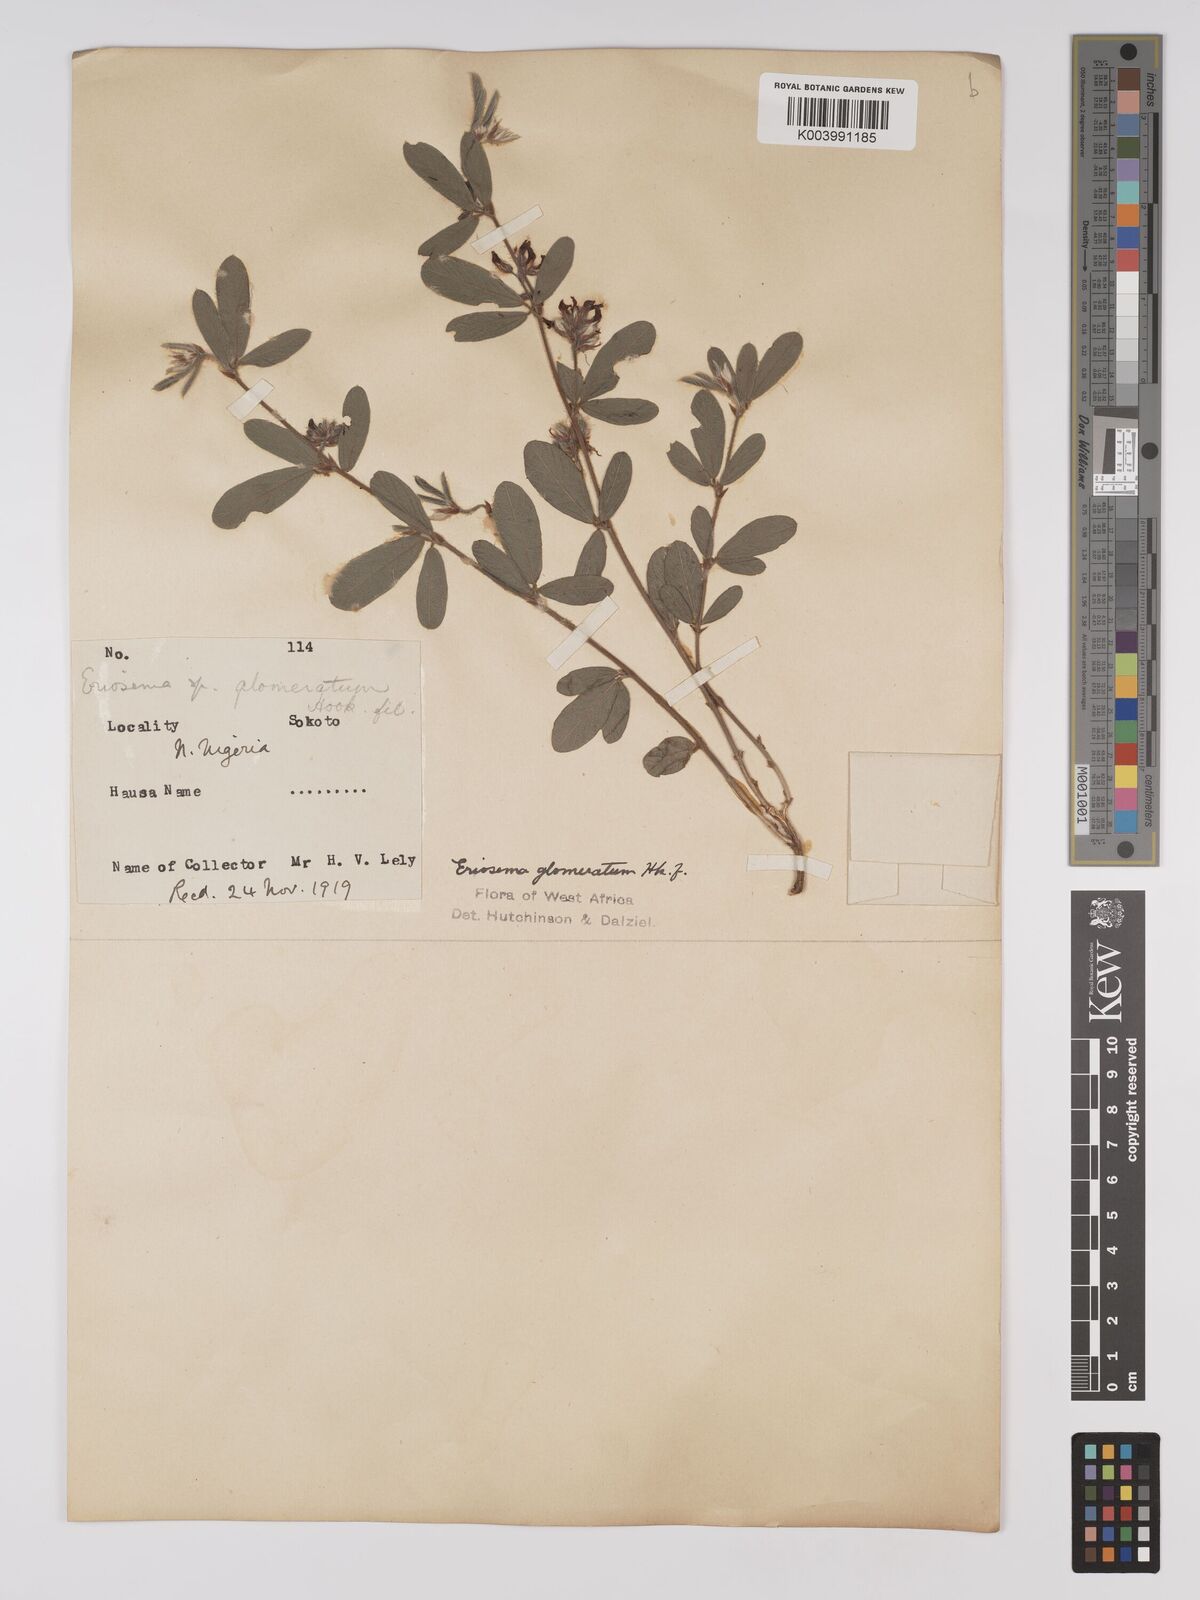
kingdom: Plantae
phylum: Tracheophyta
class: Magnoliopsida
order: Fabales
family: Fabaceae
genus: Eriosema
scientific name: Eriosema glomeratum
